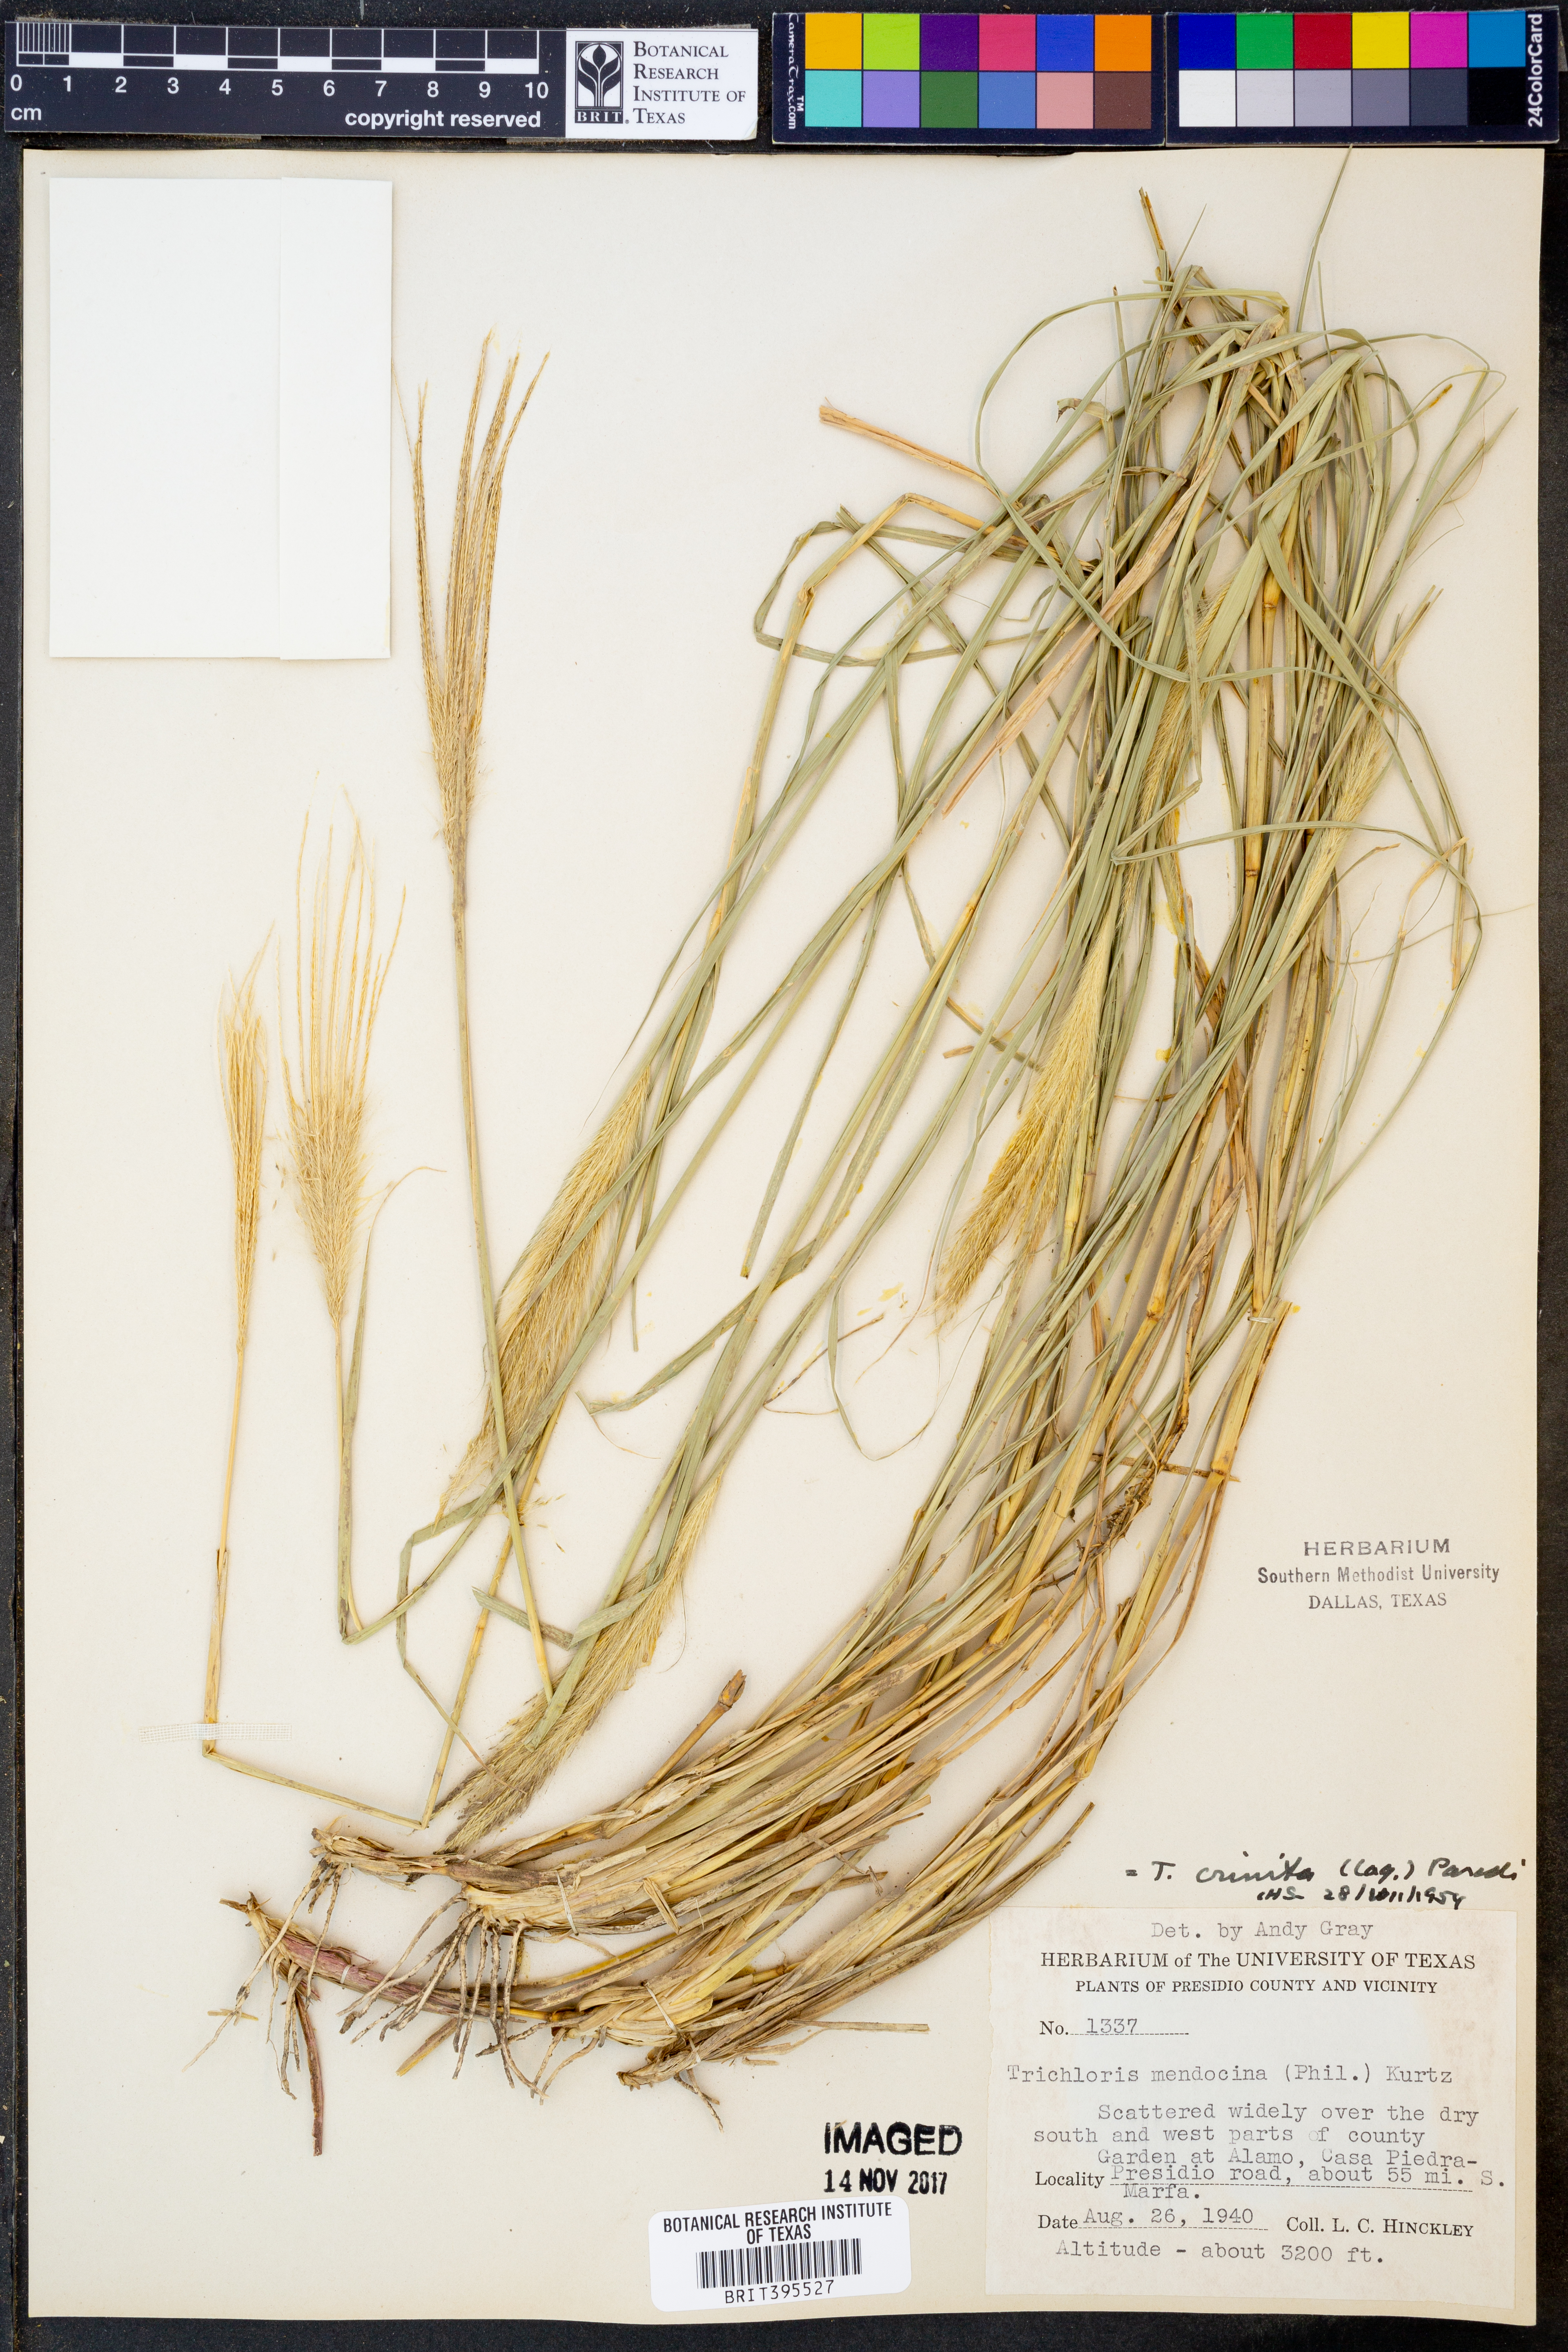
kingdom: Plantae
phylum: Tracheophyta
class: Liliopsida
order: Poales
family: Poaceae
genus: Leptochloa
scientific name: Leptochloa crinita
